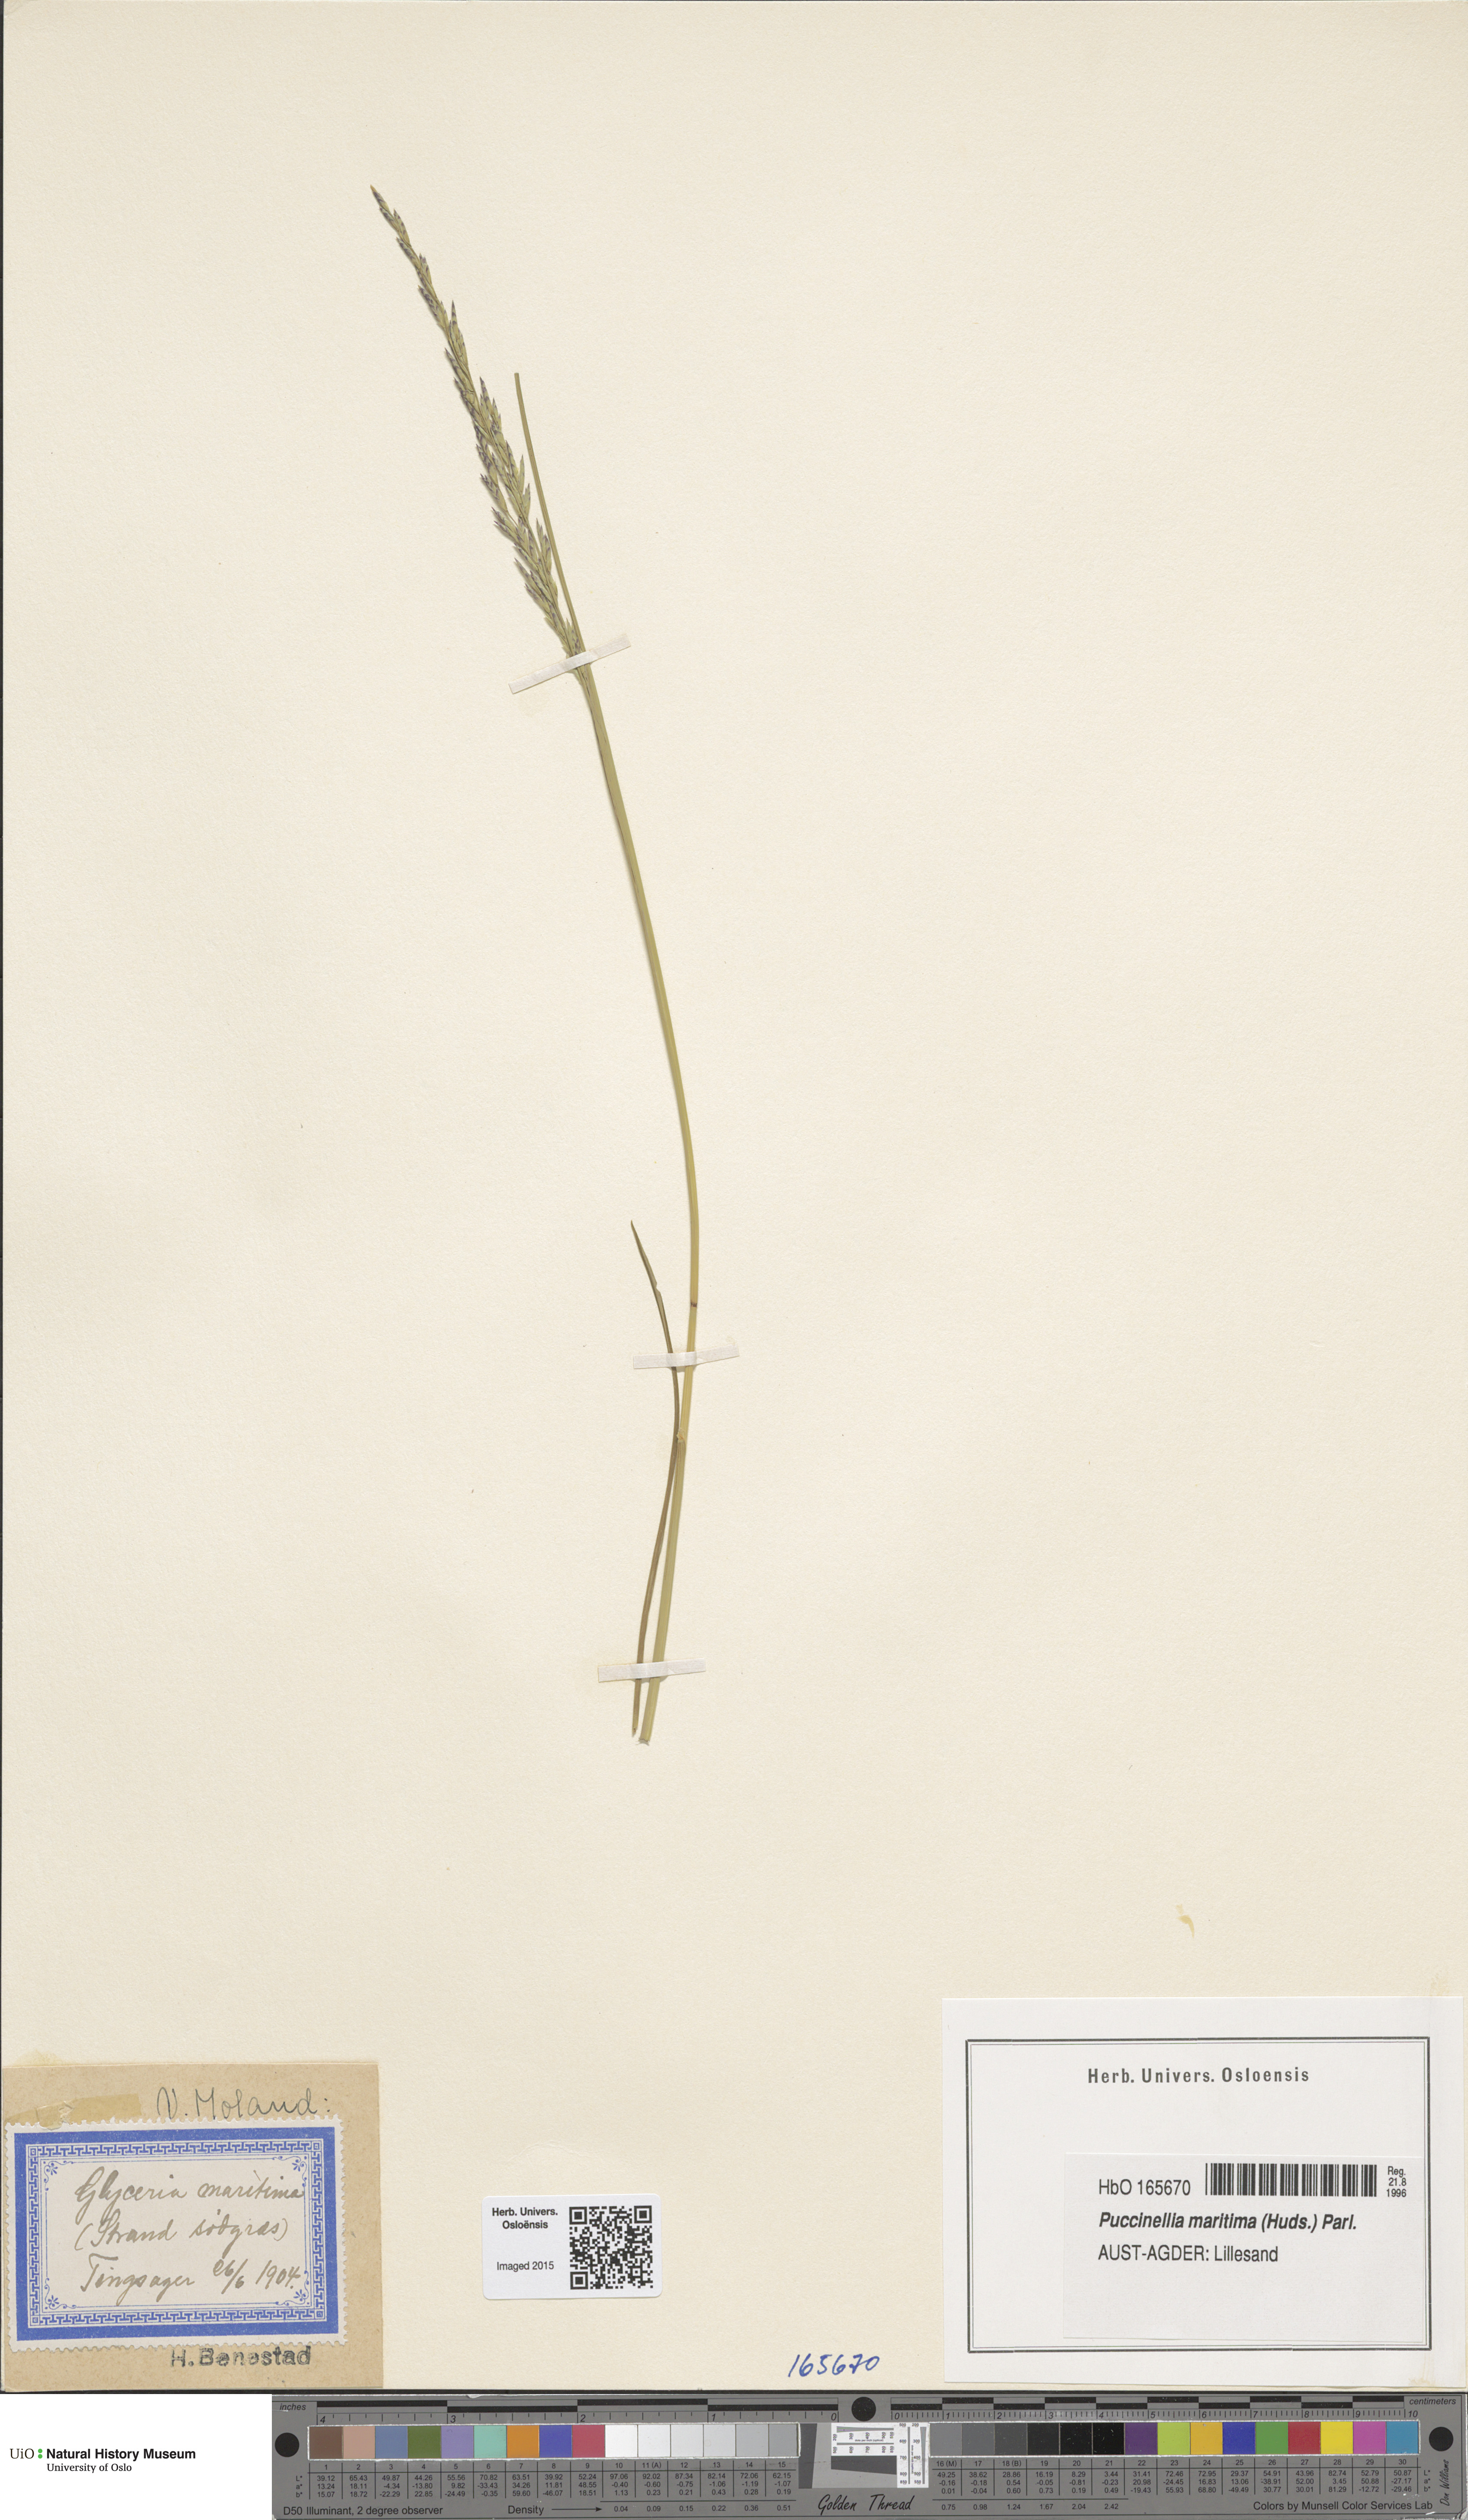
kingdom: Plantae
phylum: Tracheophyta
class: Liliopsida
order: Poales
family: Poaceae
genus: Puccinellia
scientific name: Puccinellia maritima
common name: Common saltmarsh grass
